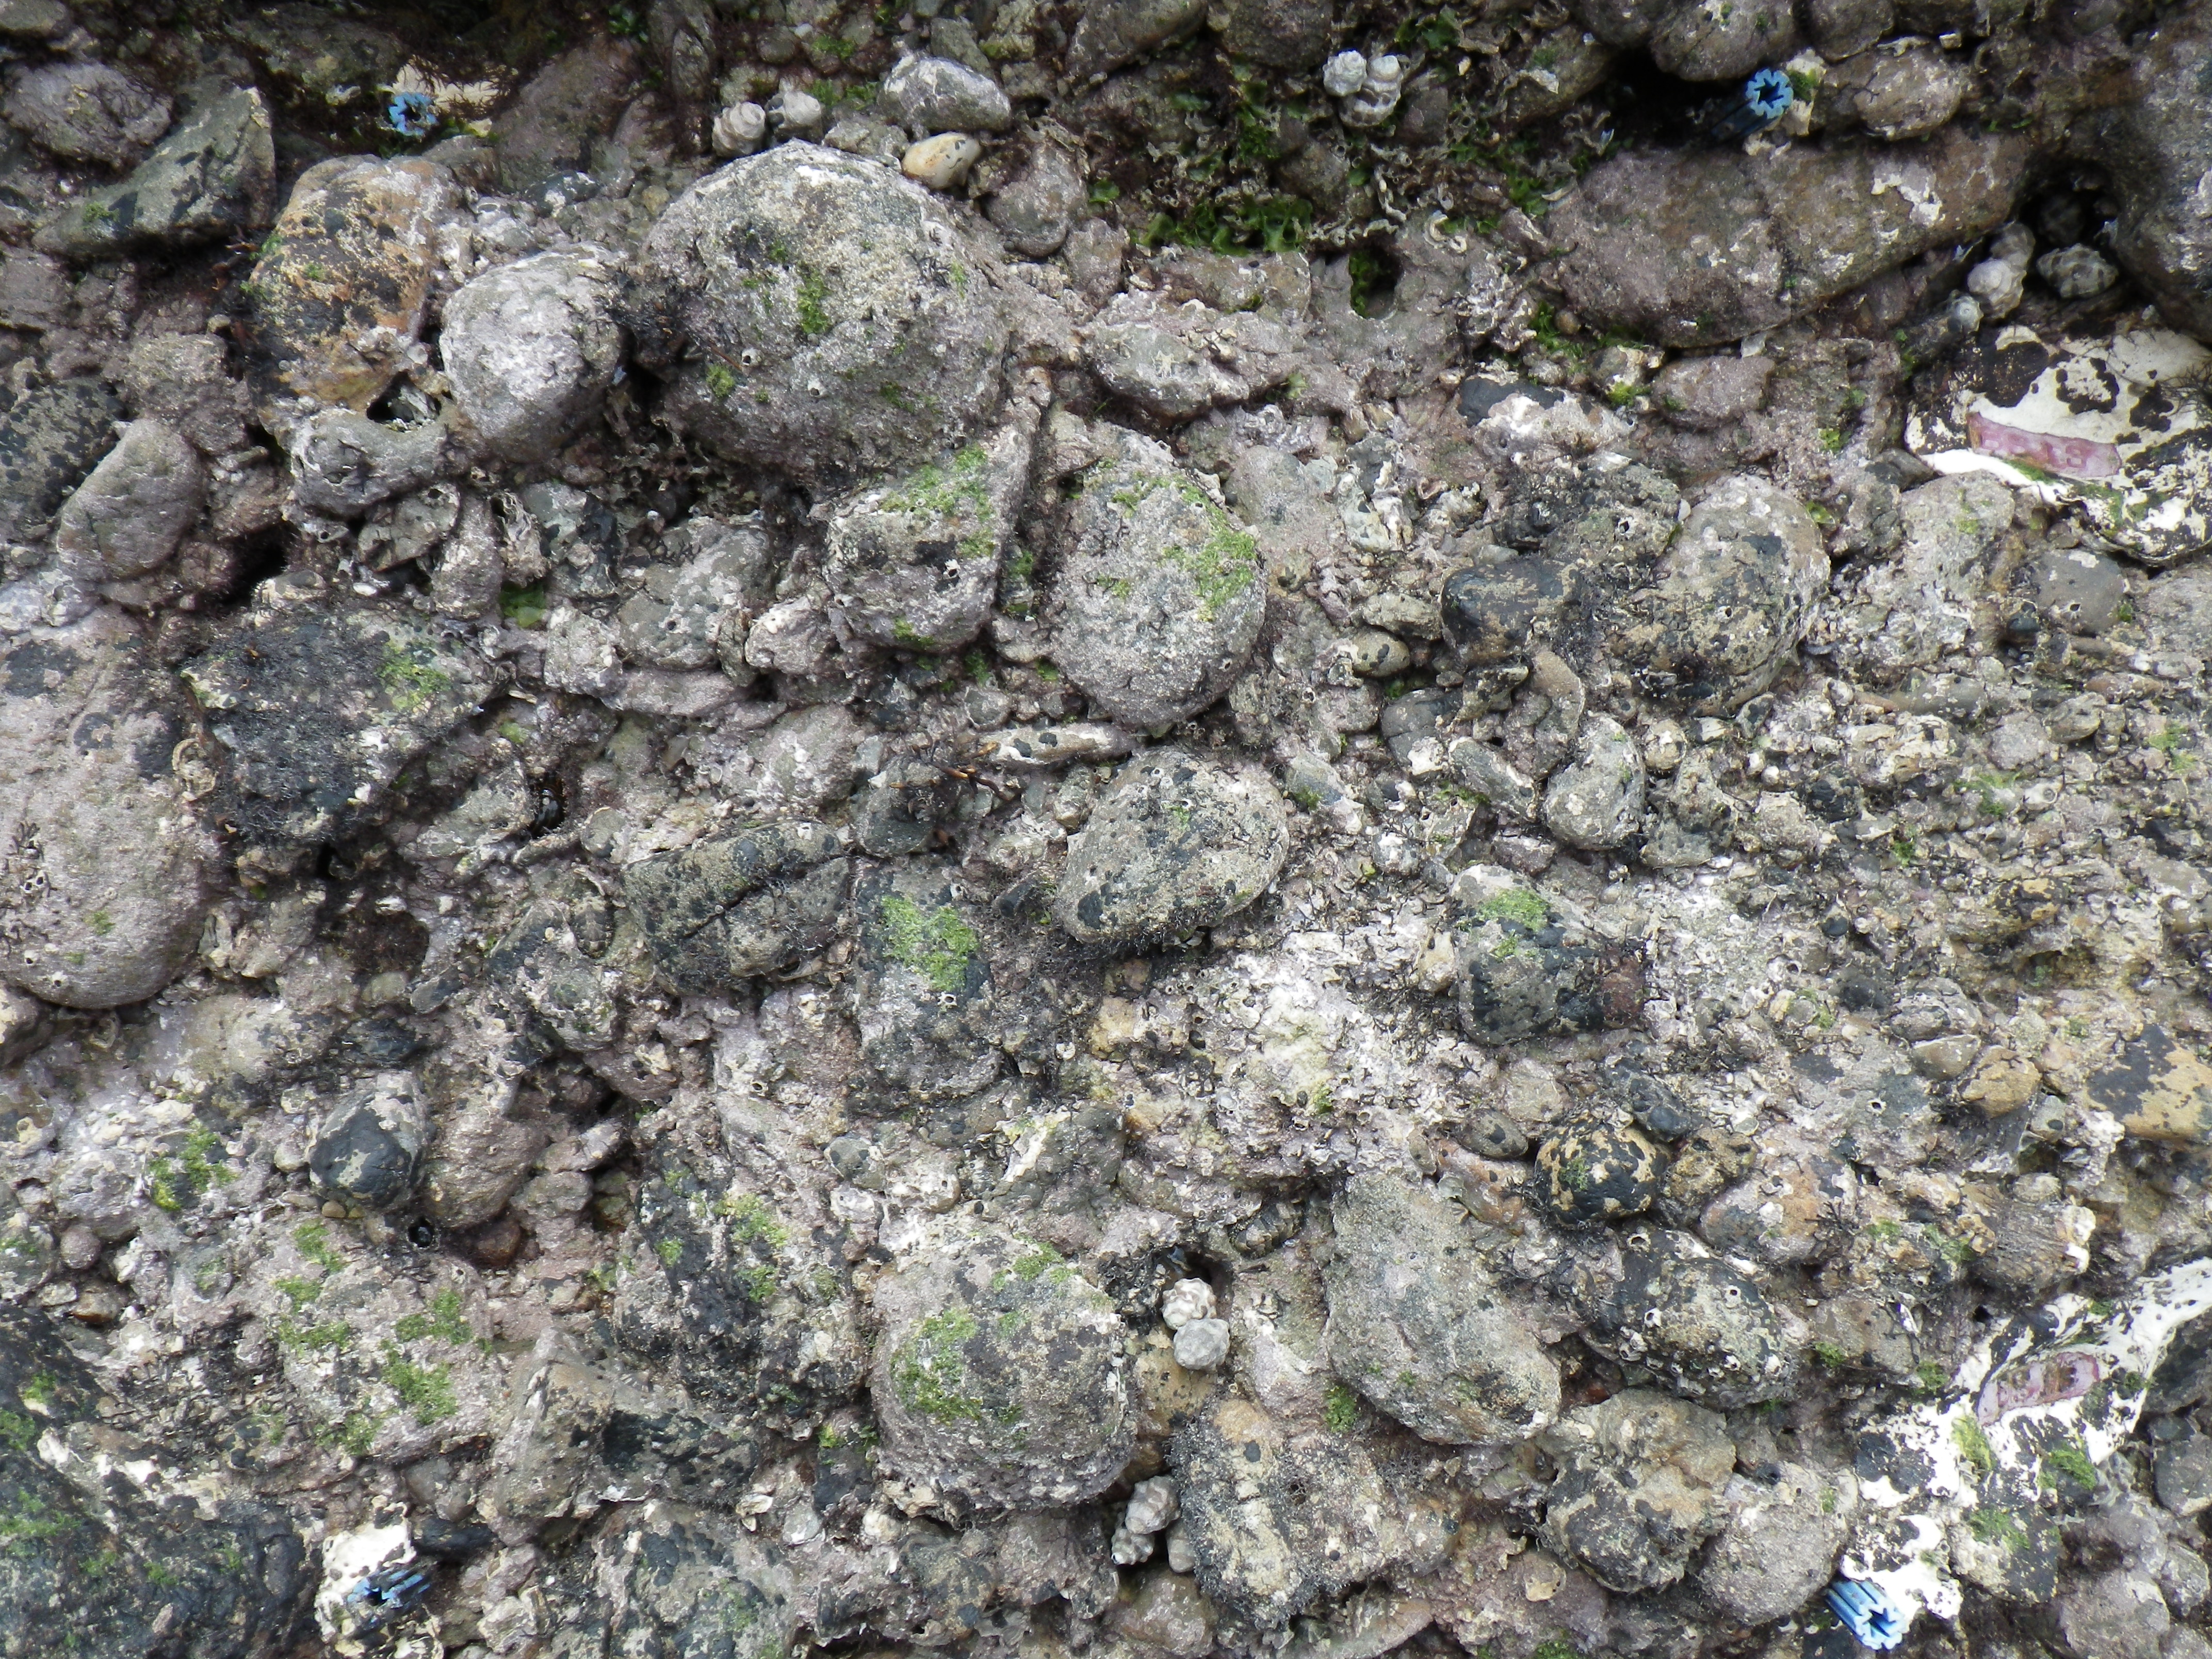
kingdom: Animalia
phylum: Arthropoda
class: Maxillopoda
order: Sessilia
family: Chthamalidae
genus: Chthamalus
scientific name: Chthamalus challengeri
